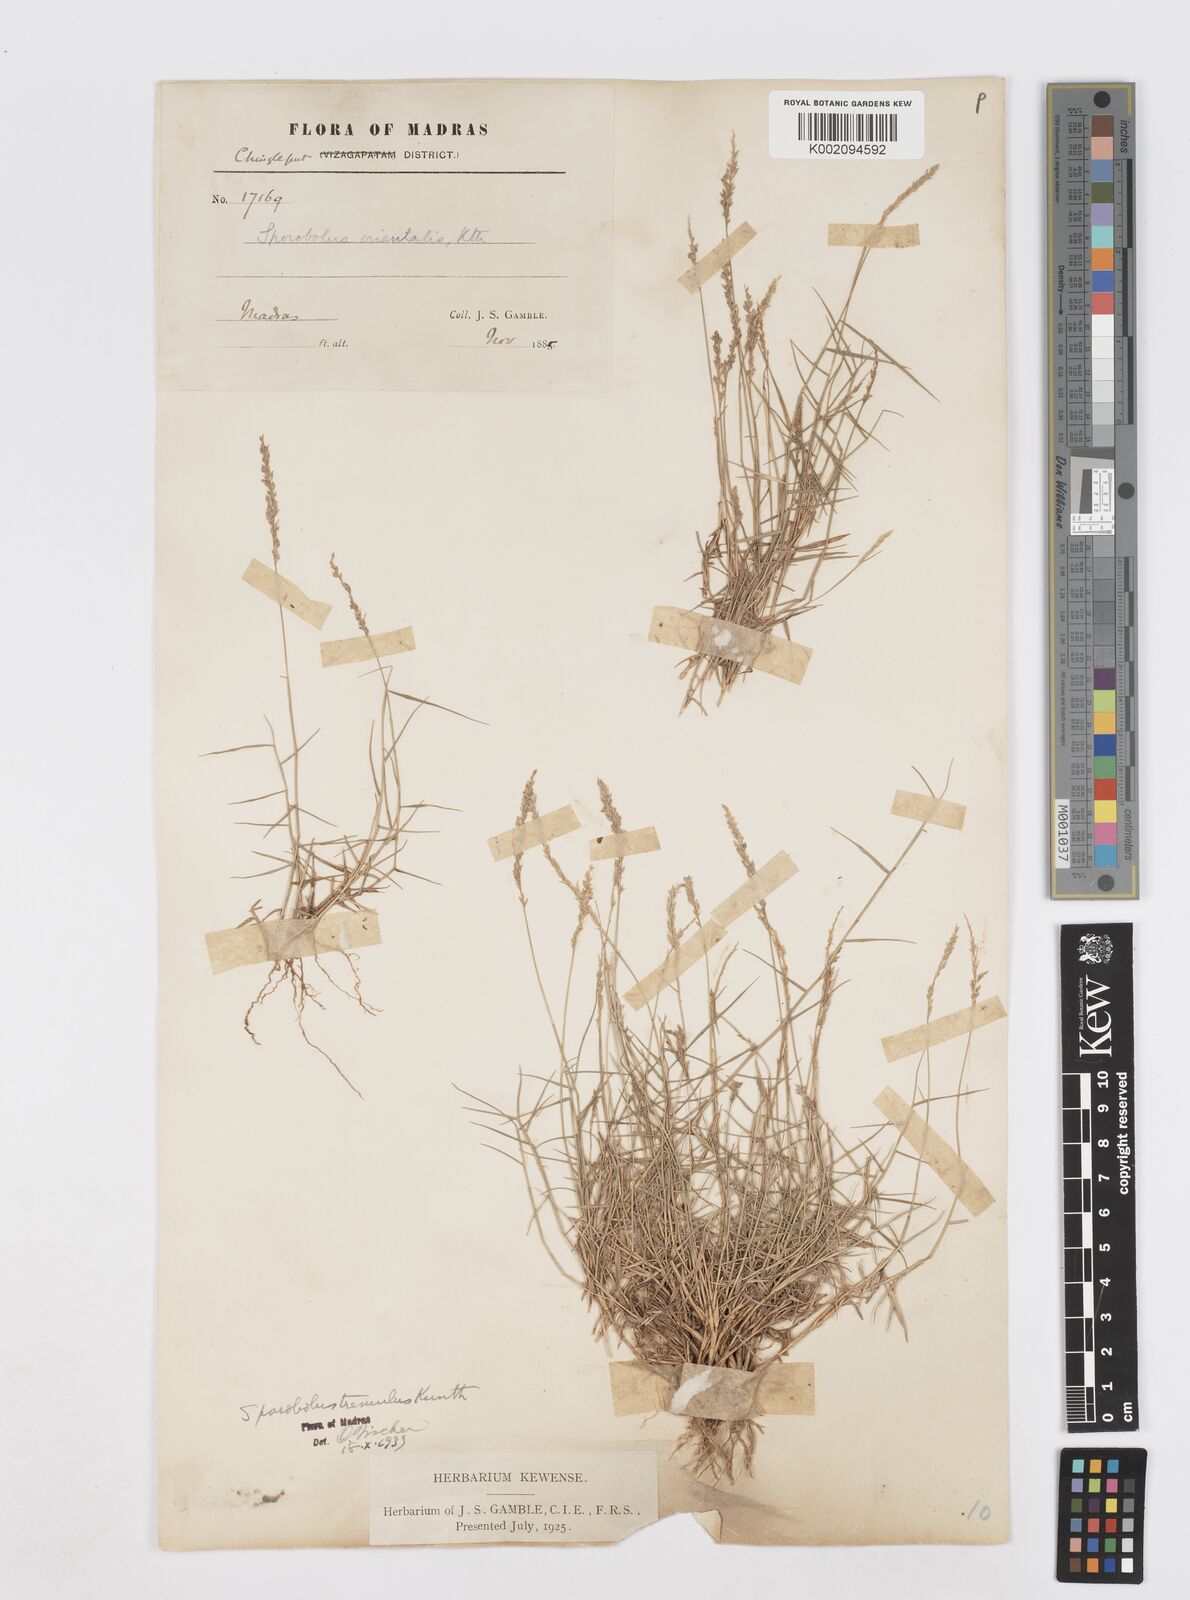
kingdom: Plantae
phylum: Tracheophyta
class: Liliopsida
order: Poales
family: Poaceae
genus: Sporobolus
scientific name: Sporobolus virginicus
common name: Beach dropseed
